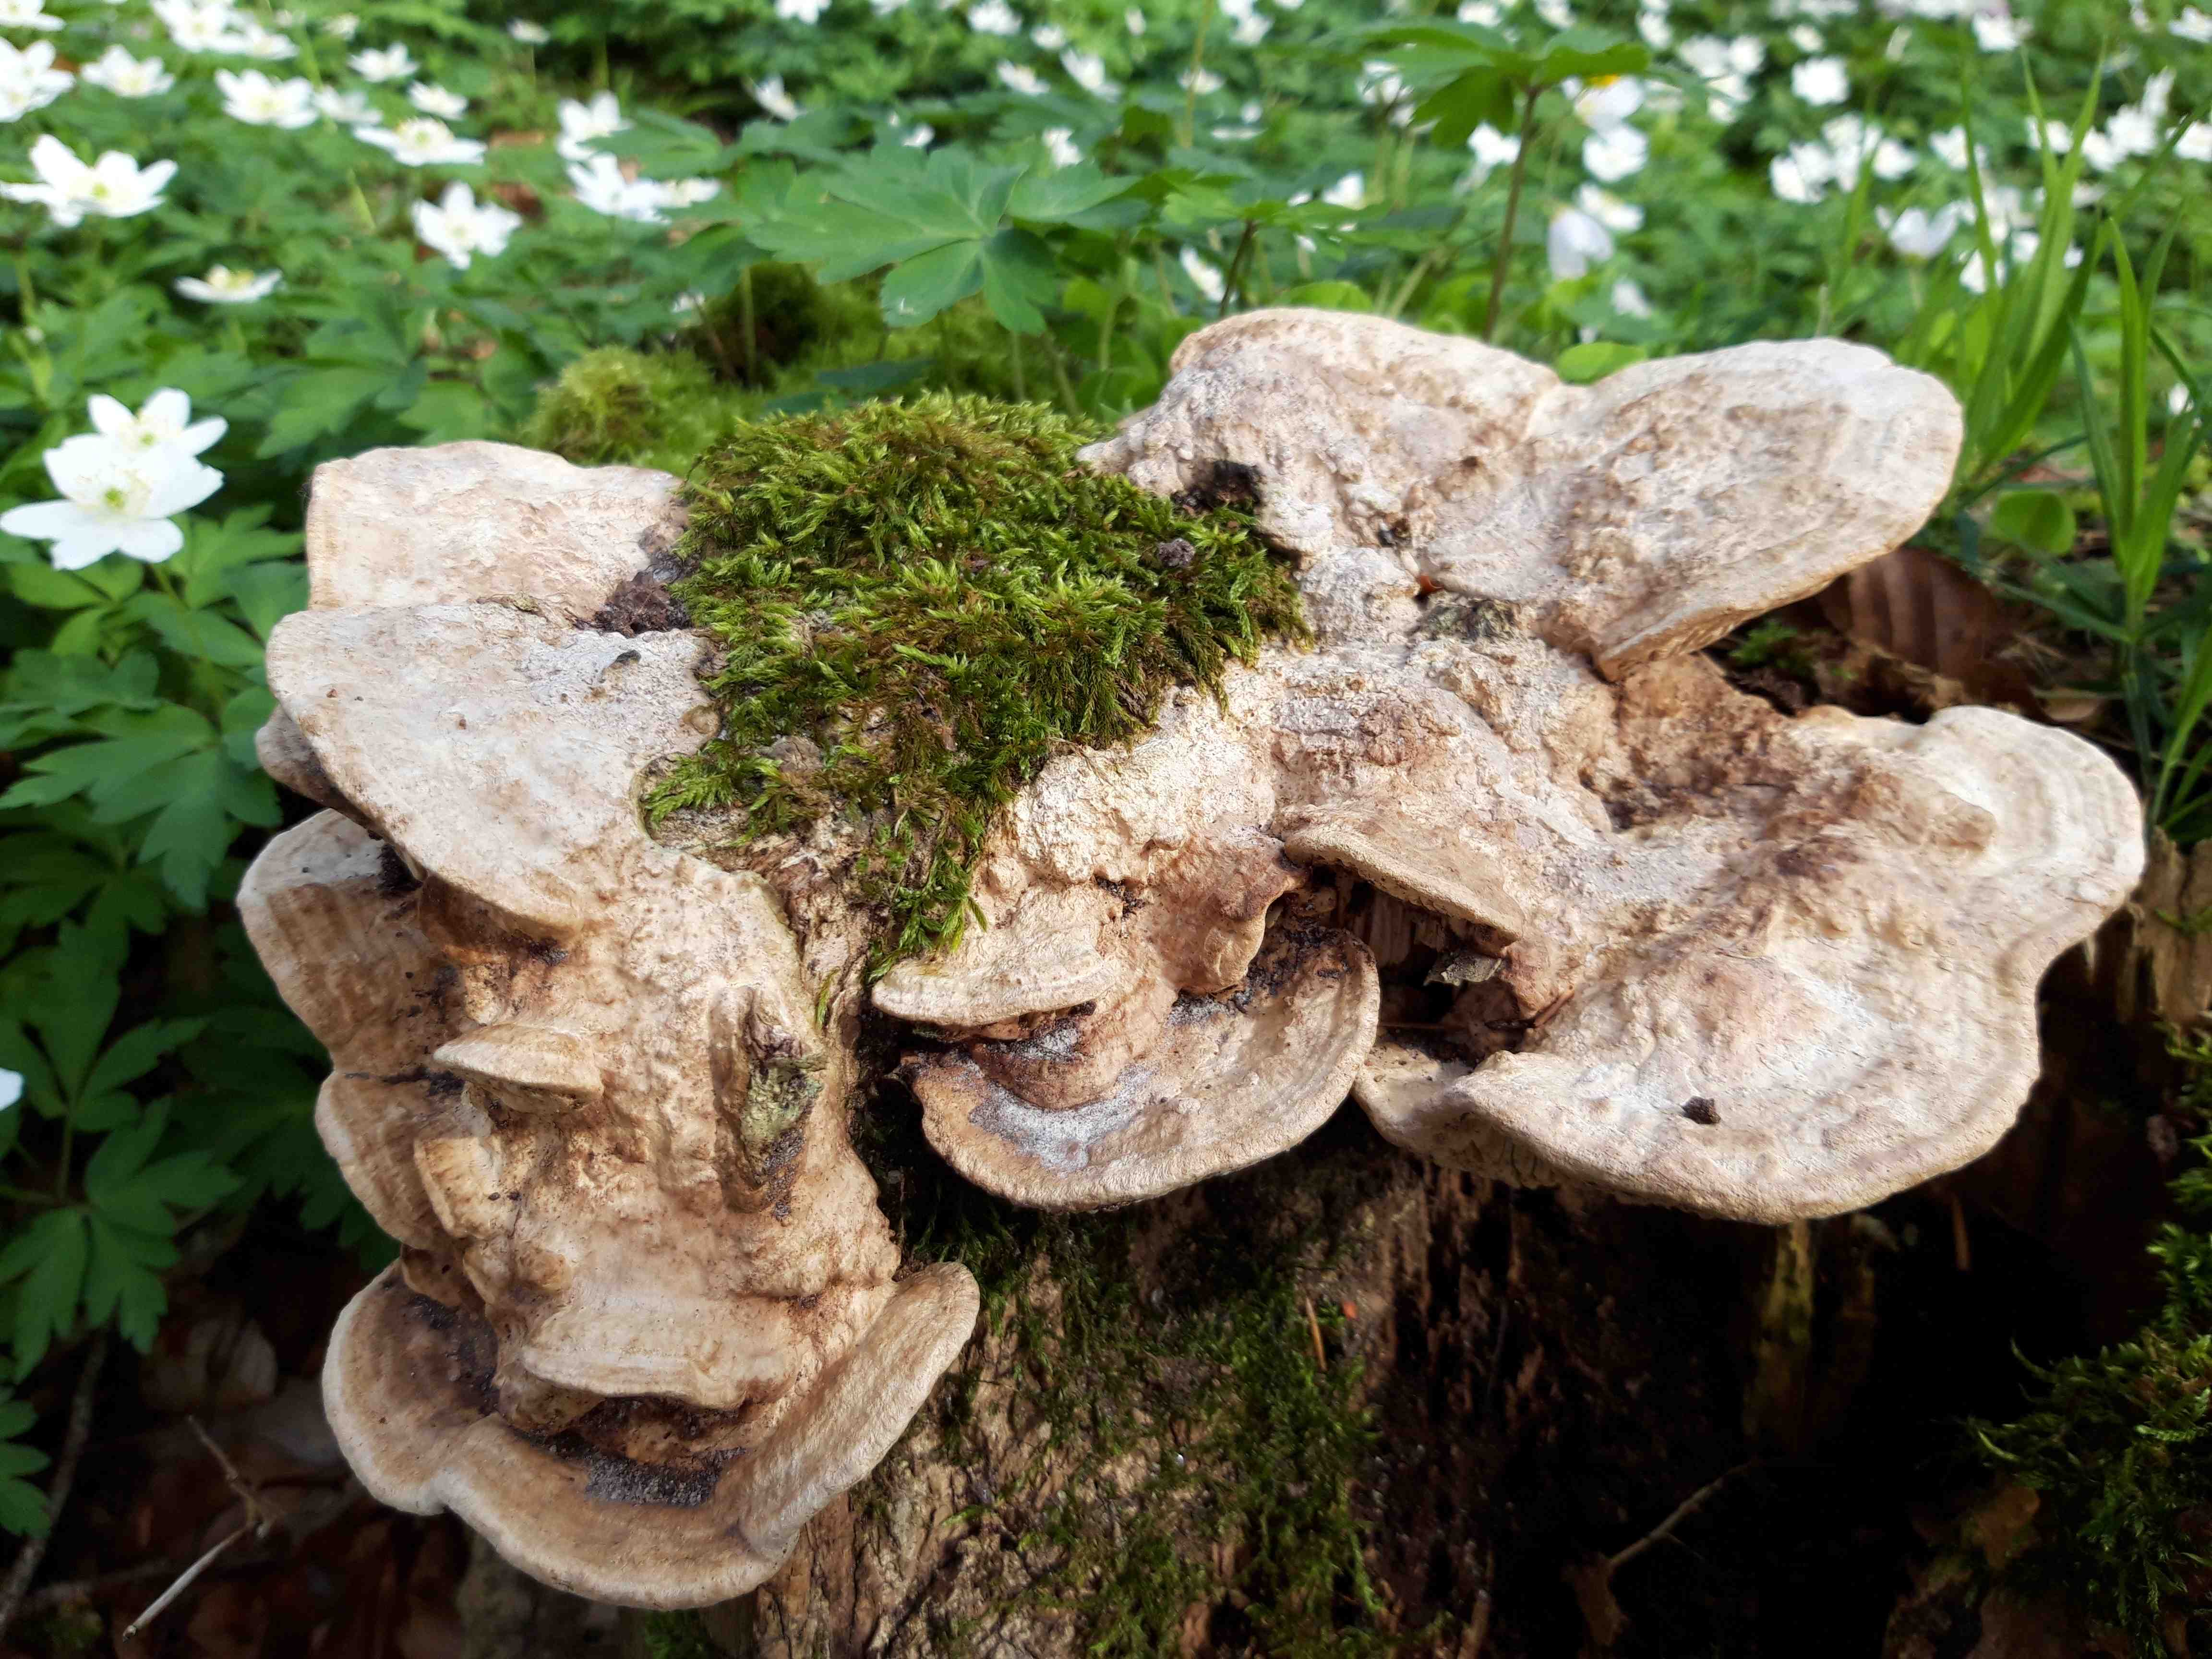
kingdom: Fungi
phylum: Basidiomycota
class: Agaricomycetes
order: Polyporales
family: Fomitopsidaceae
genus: Daedalea
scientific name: Daedalea quercina
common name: ege-labyrintsvamp
